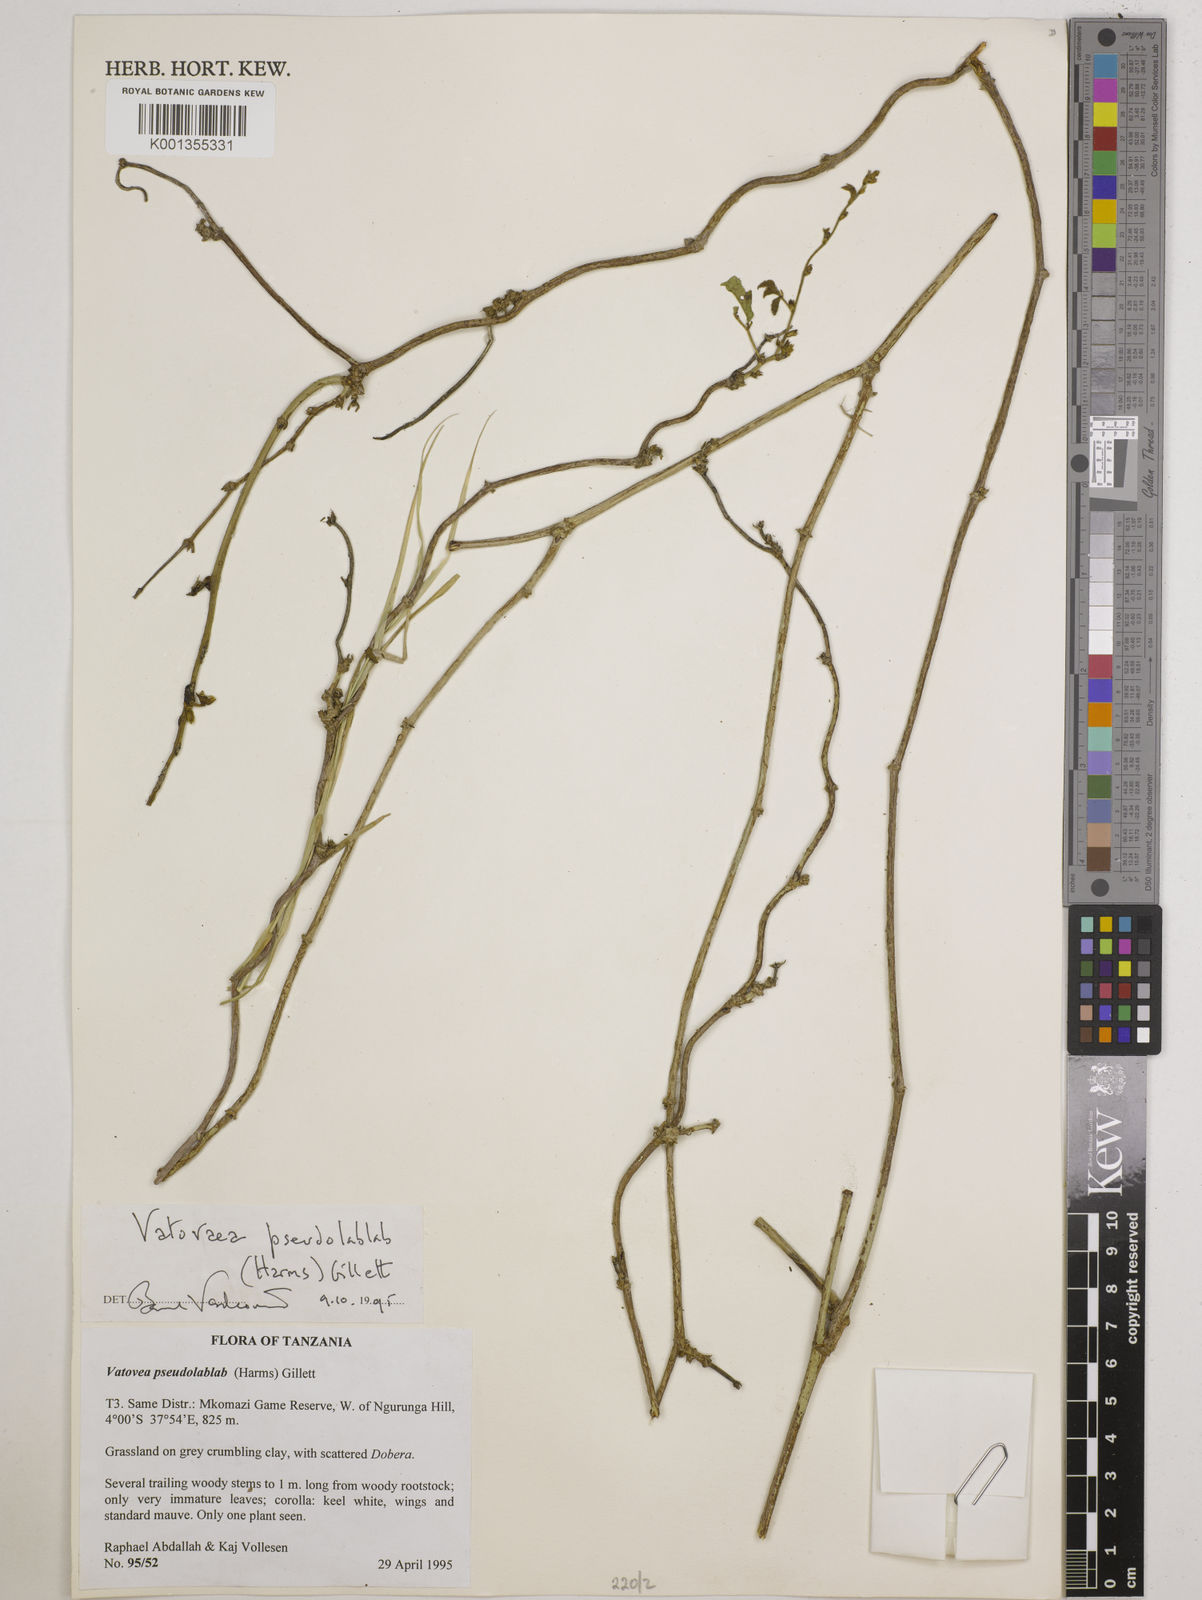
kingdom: Plantae
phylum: Tracheophyta
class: Magnoliopsida
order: Fabales
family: Fabaceae
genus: Vatovaea
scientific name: Vatovaea pseudolablab
